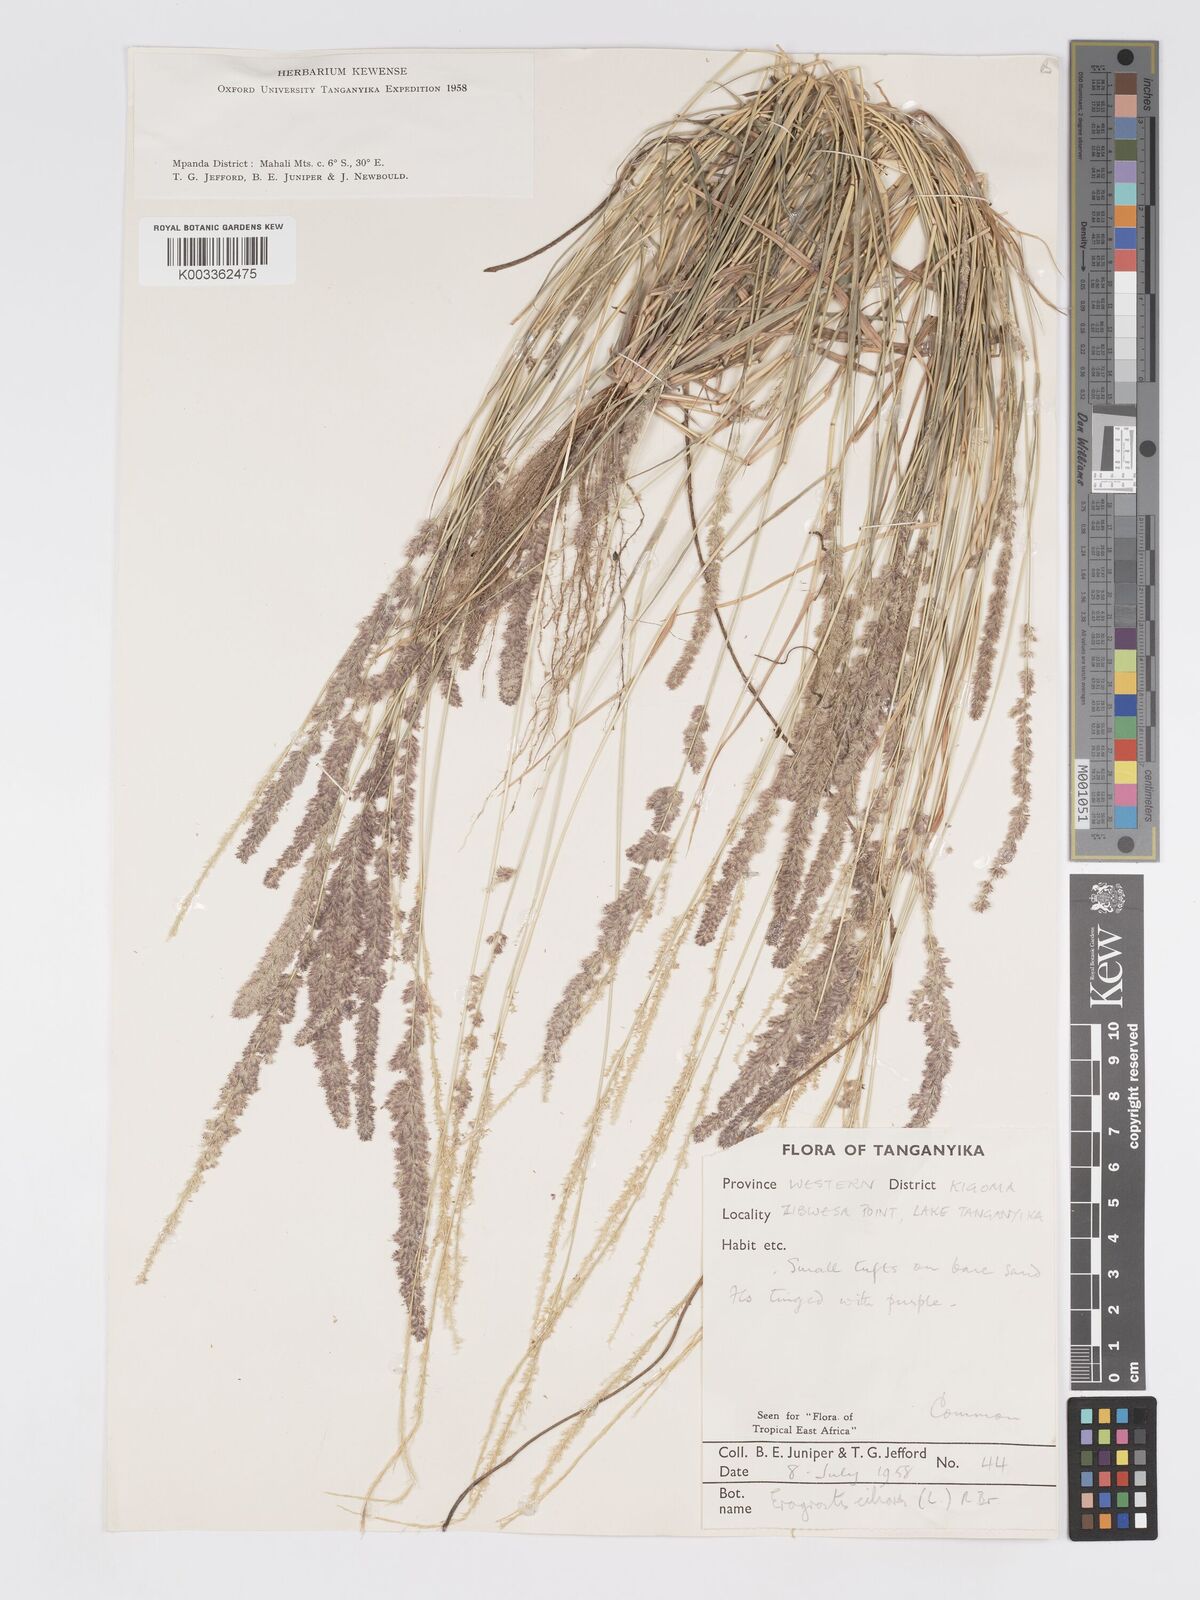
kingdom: Plantae
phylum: Tracheophyta
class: Liliopsida
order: Poales
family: Poaceae
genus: Eragrostis
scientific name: Eragrostis ciliaris
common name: Gophertail lovegrass
